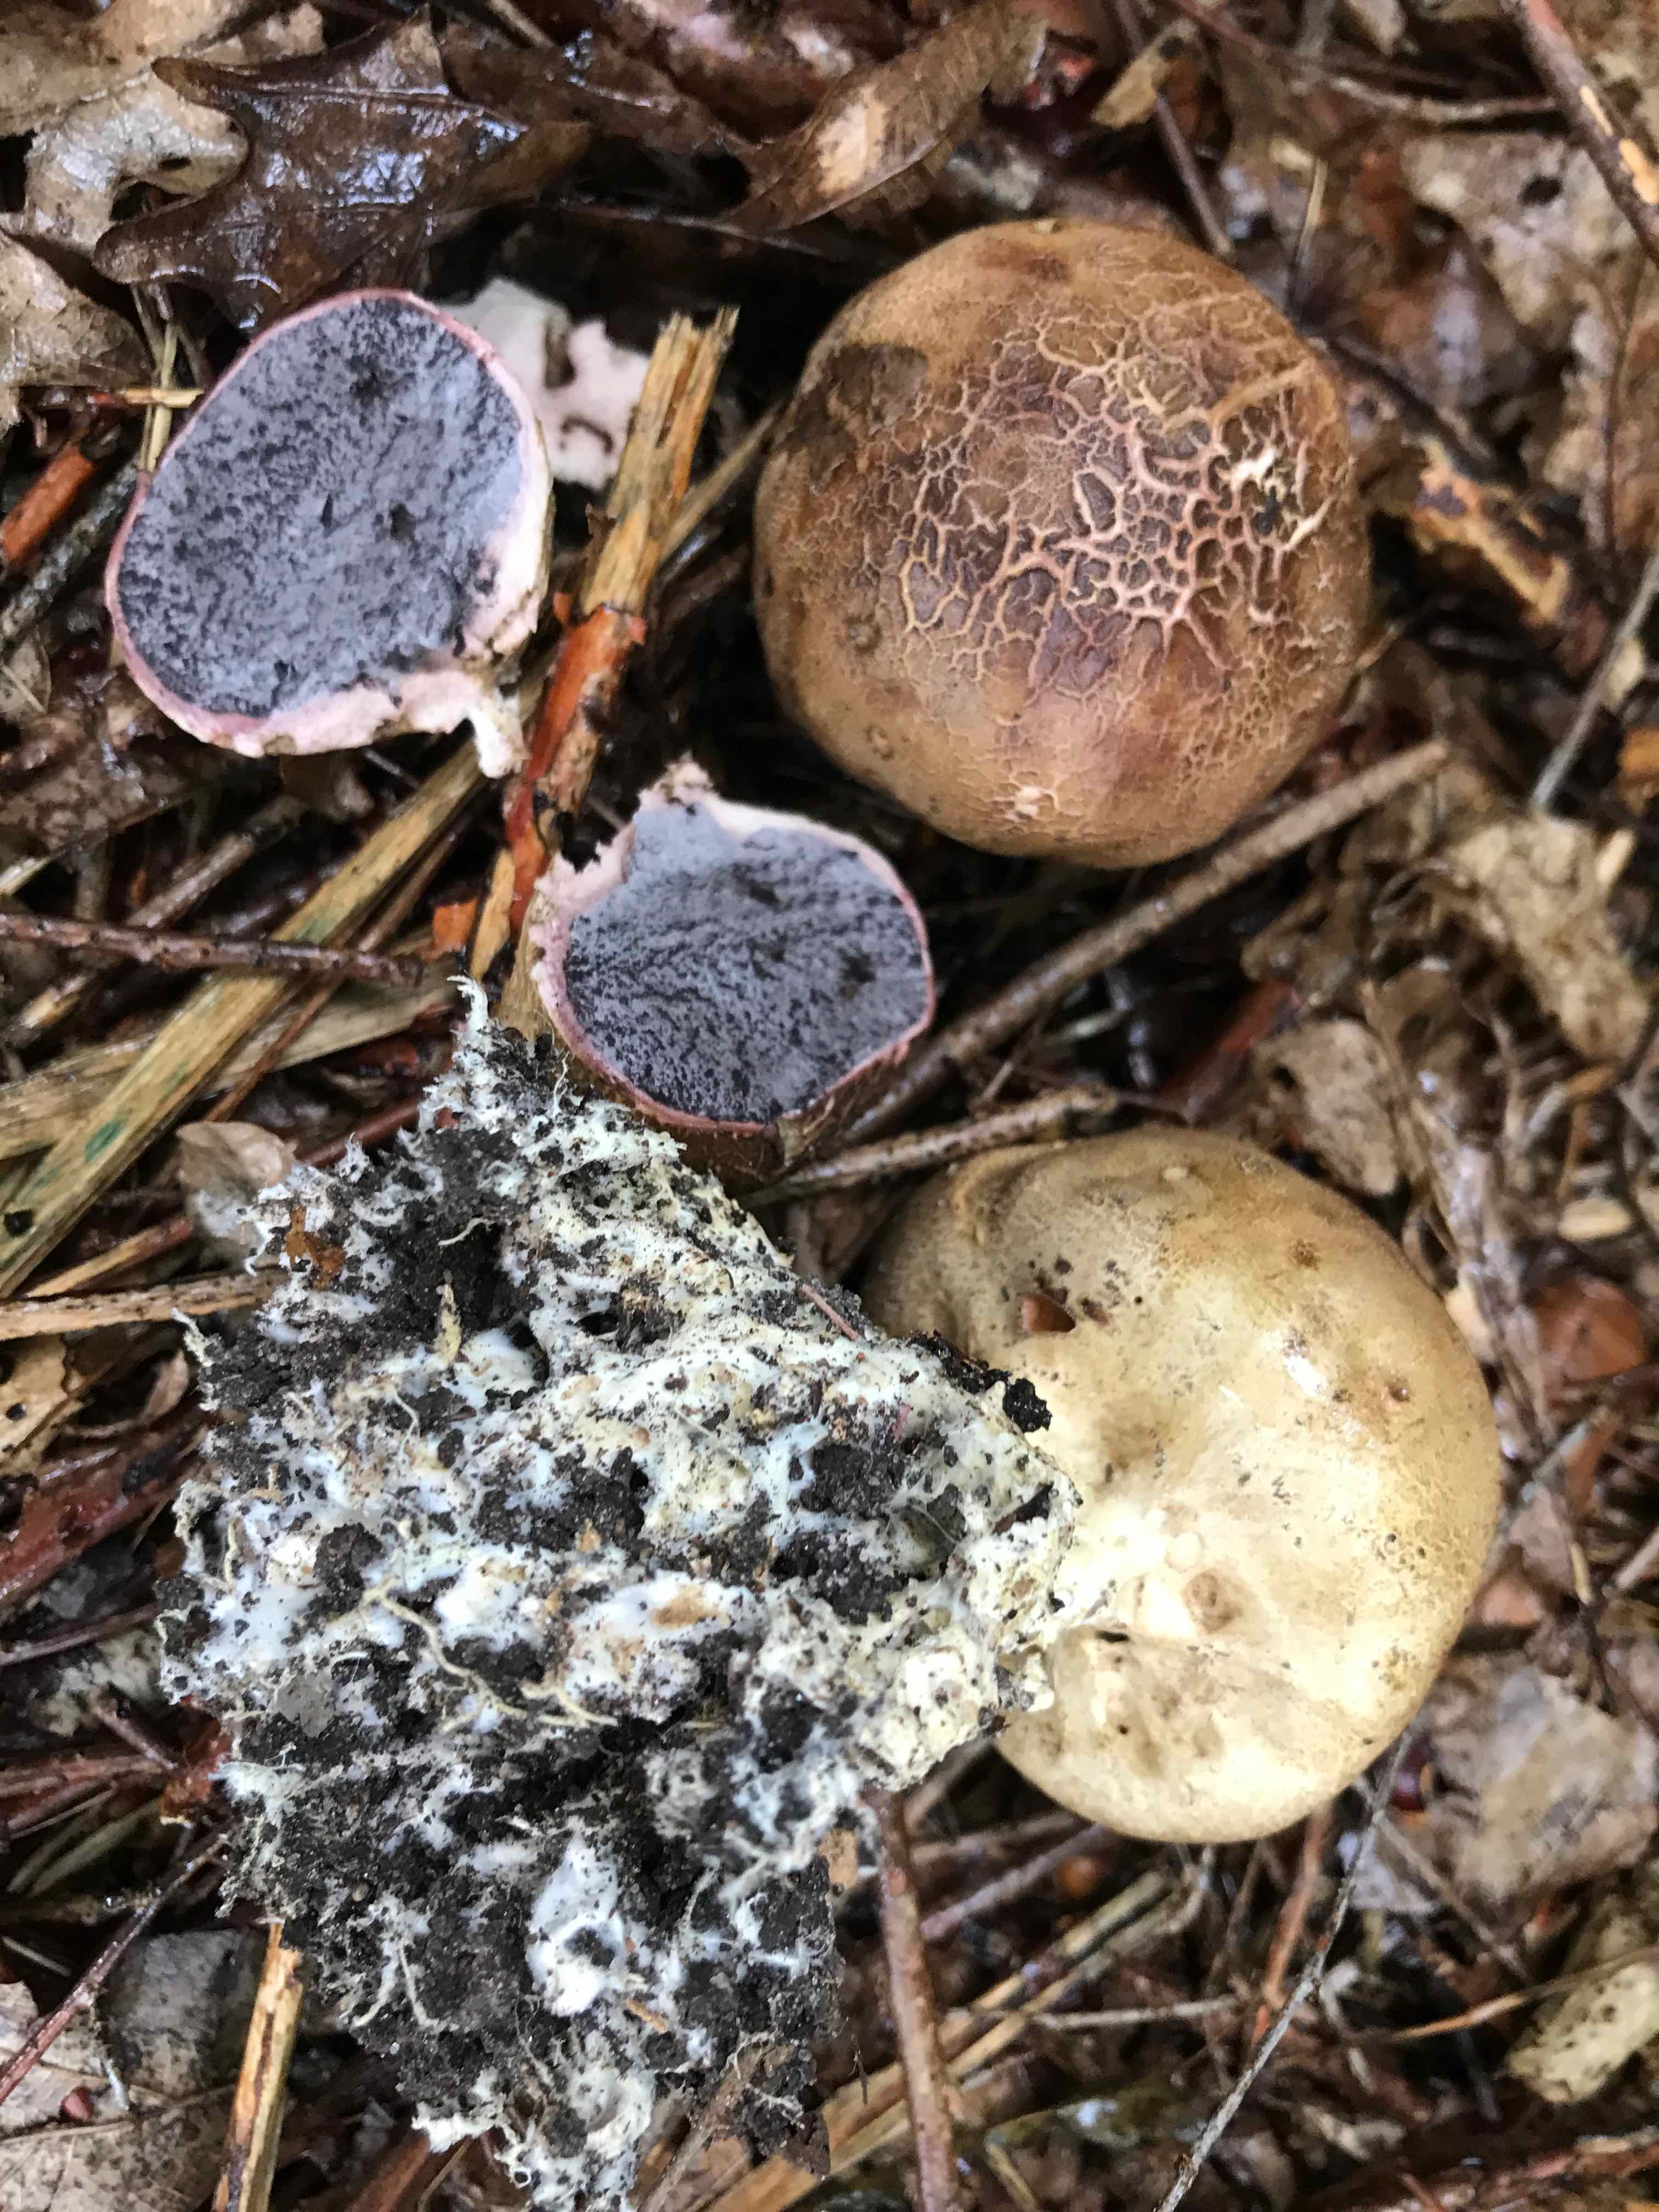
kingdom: Fungi
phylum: Basidiomycota
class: Agaricomycetes
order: Boletales
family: Sclerodermataceae
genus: Scleroderma
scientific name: Scleroderma verrucosum
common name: stilket bruskbold
